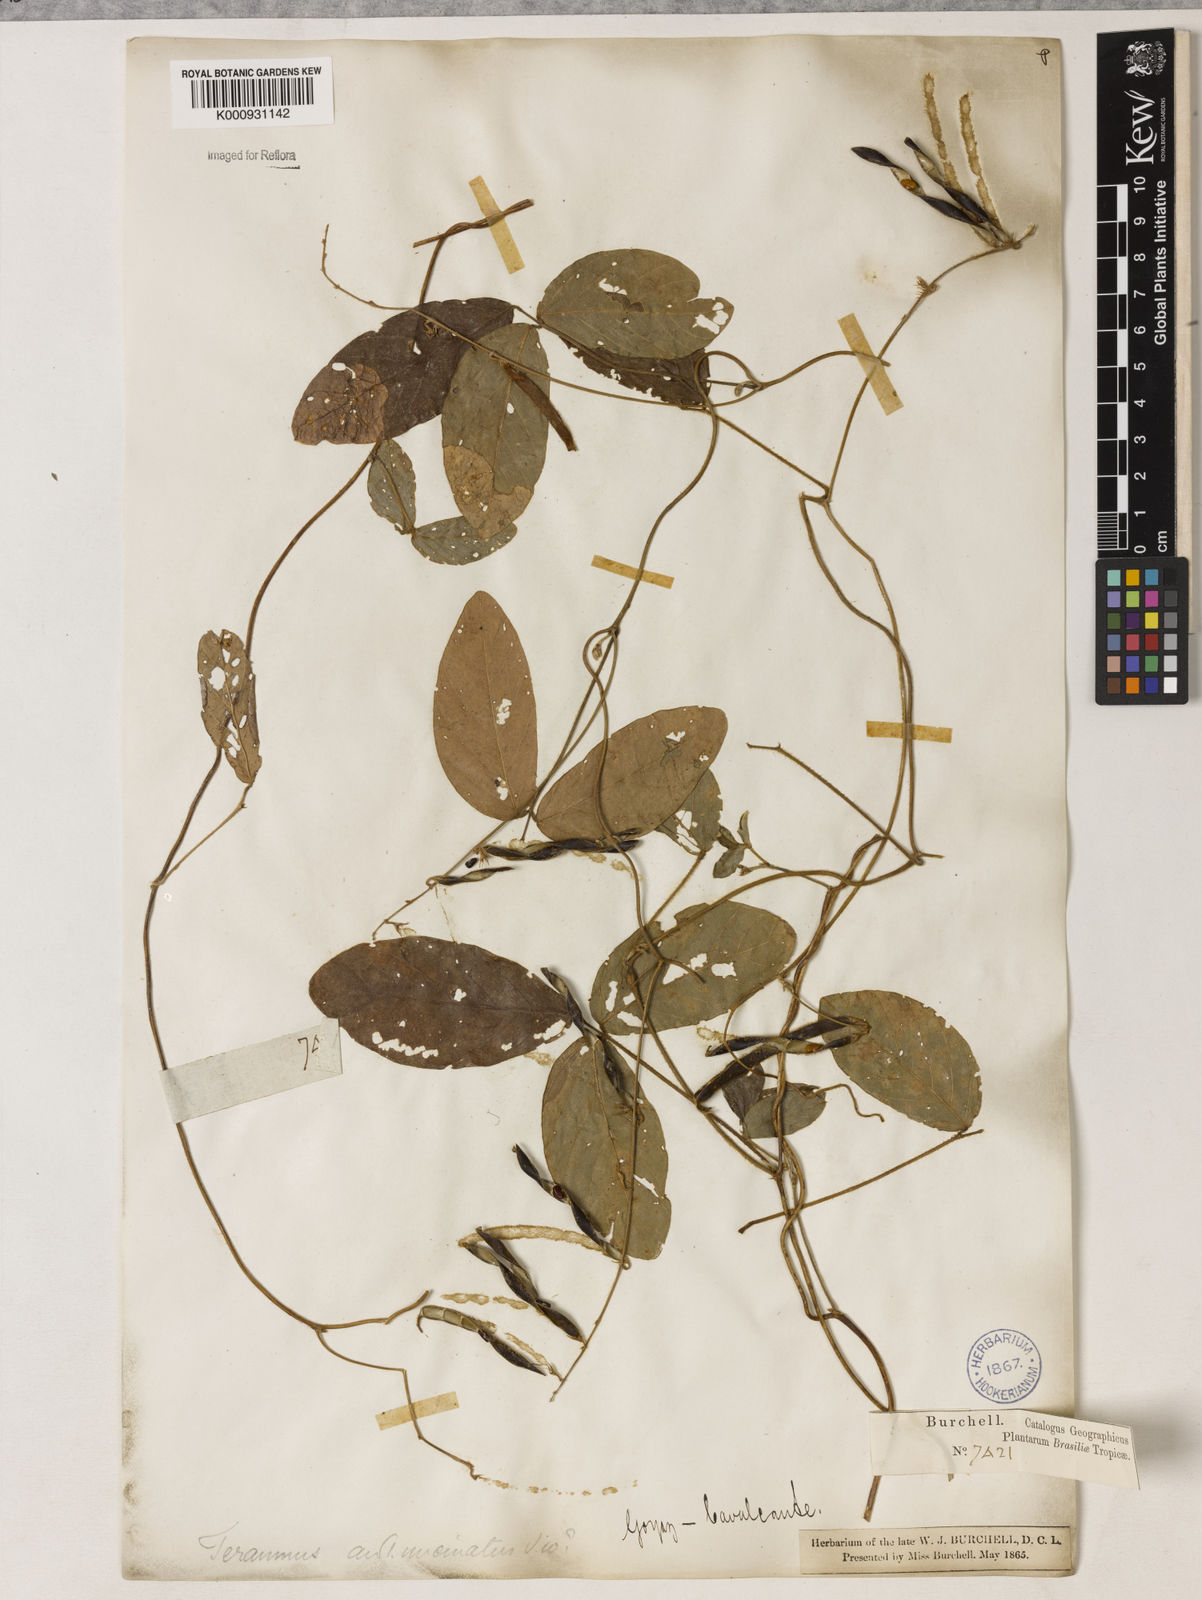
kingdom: Plantae
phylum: Tracheophyta
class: Magnoliopsida
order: Fabales
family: Fabaceae
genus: Teramnus
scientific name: Teramnus uncinatus
